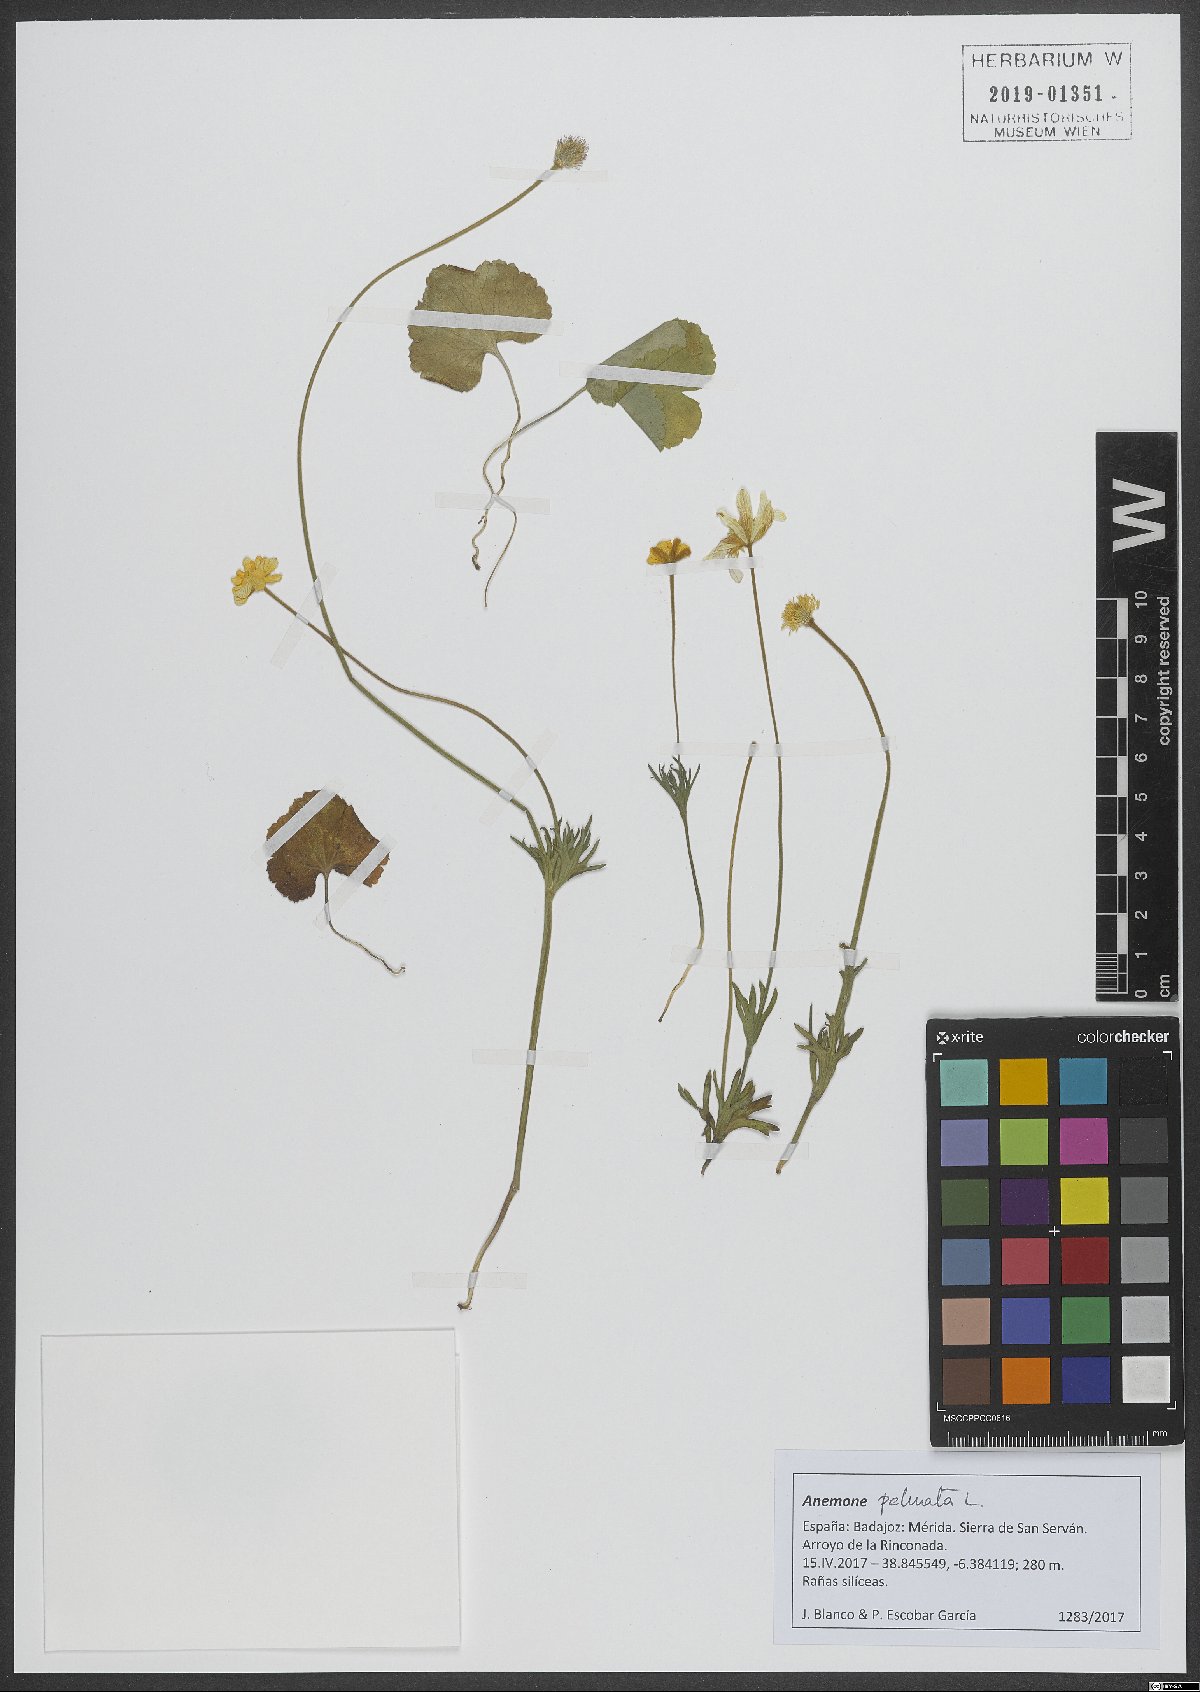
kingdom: Plantae
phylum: Tracheophyta
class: Magnoliopsida
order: Ranunculales
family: Ranunculaceae
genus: Anemone
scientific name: Anemone palmata
